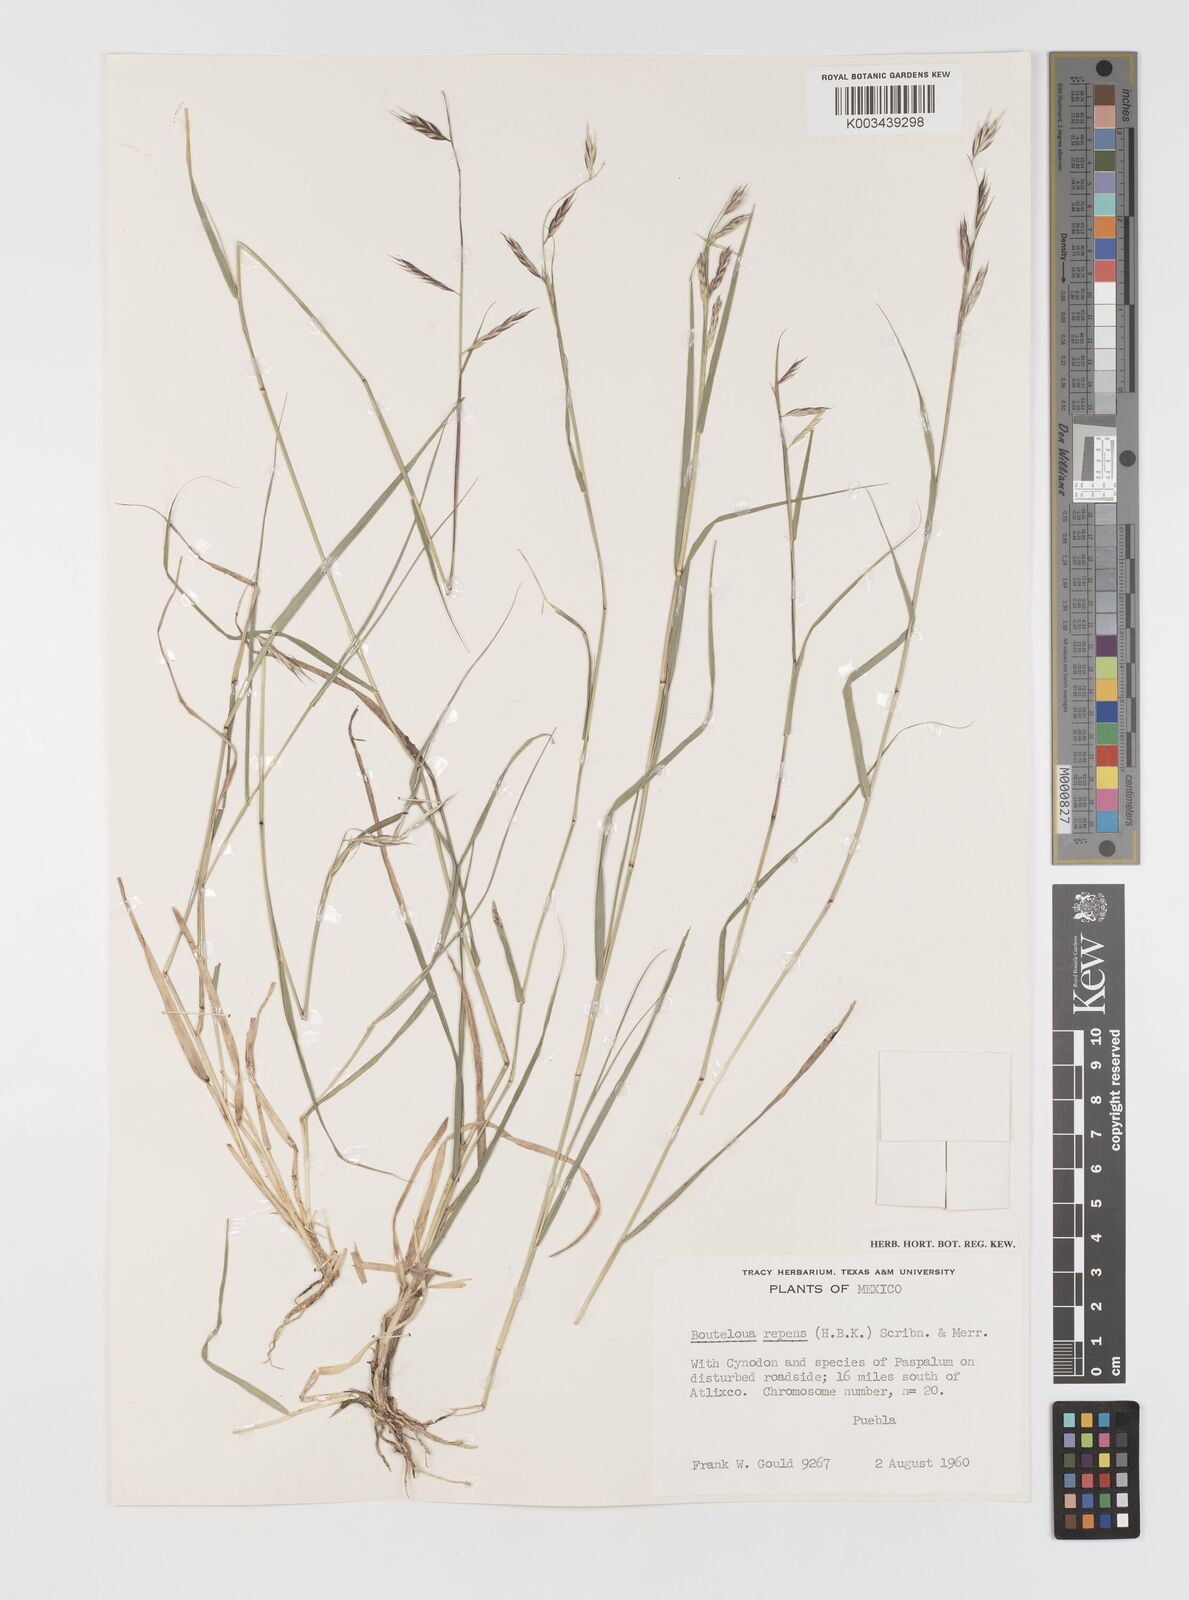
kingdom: Plantae
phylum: Tracheophyta
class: Liliopsida
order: Poales
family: Poaceae
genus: Bouteloua
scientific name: Bouteloua repens
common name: Slender grama
